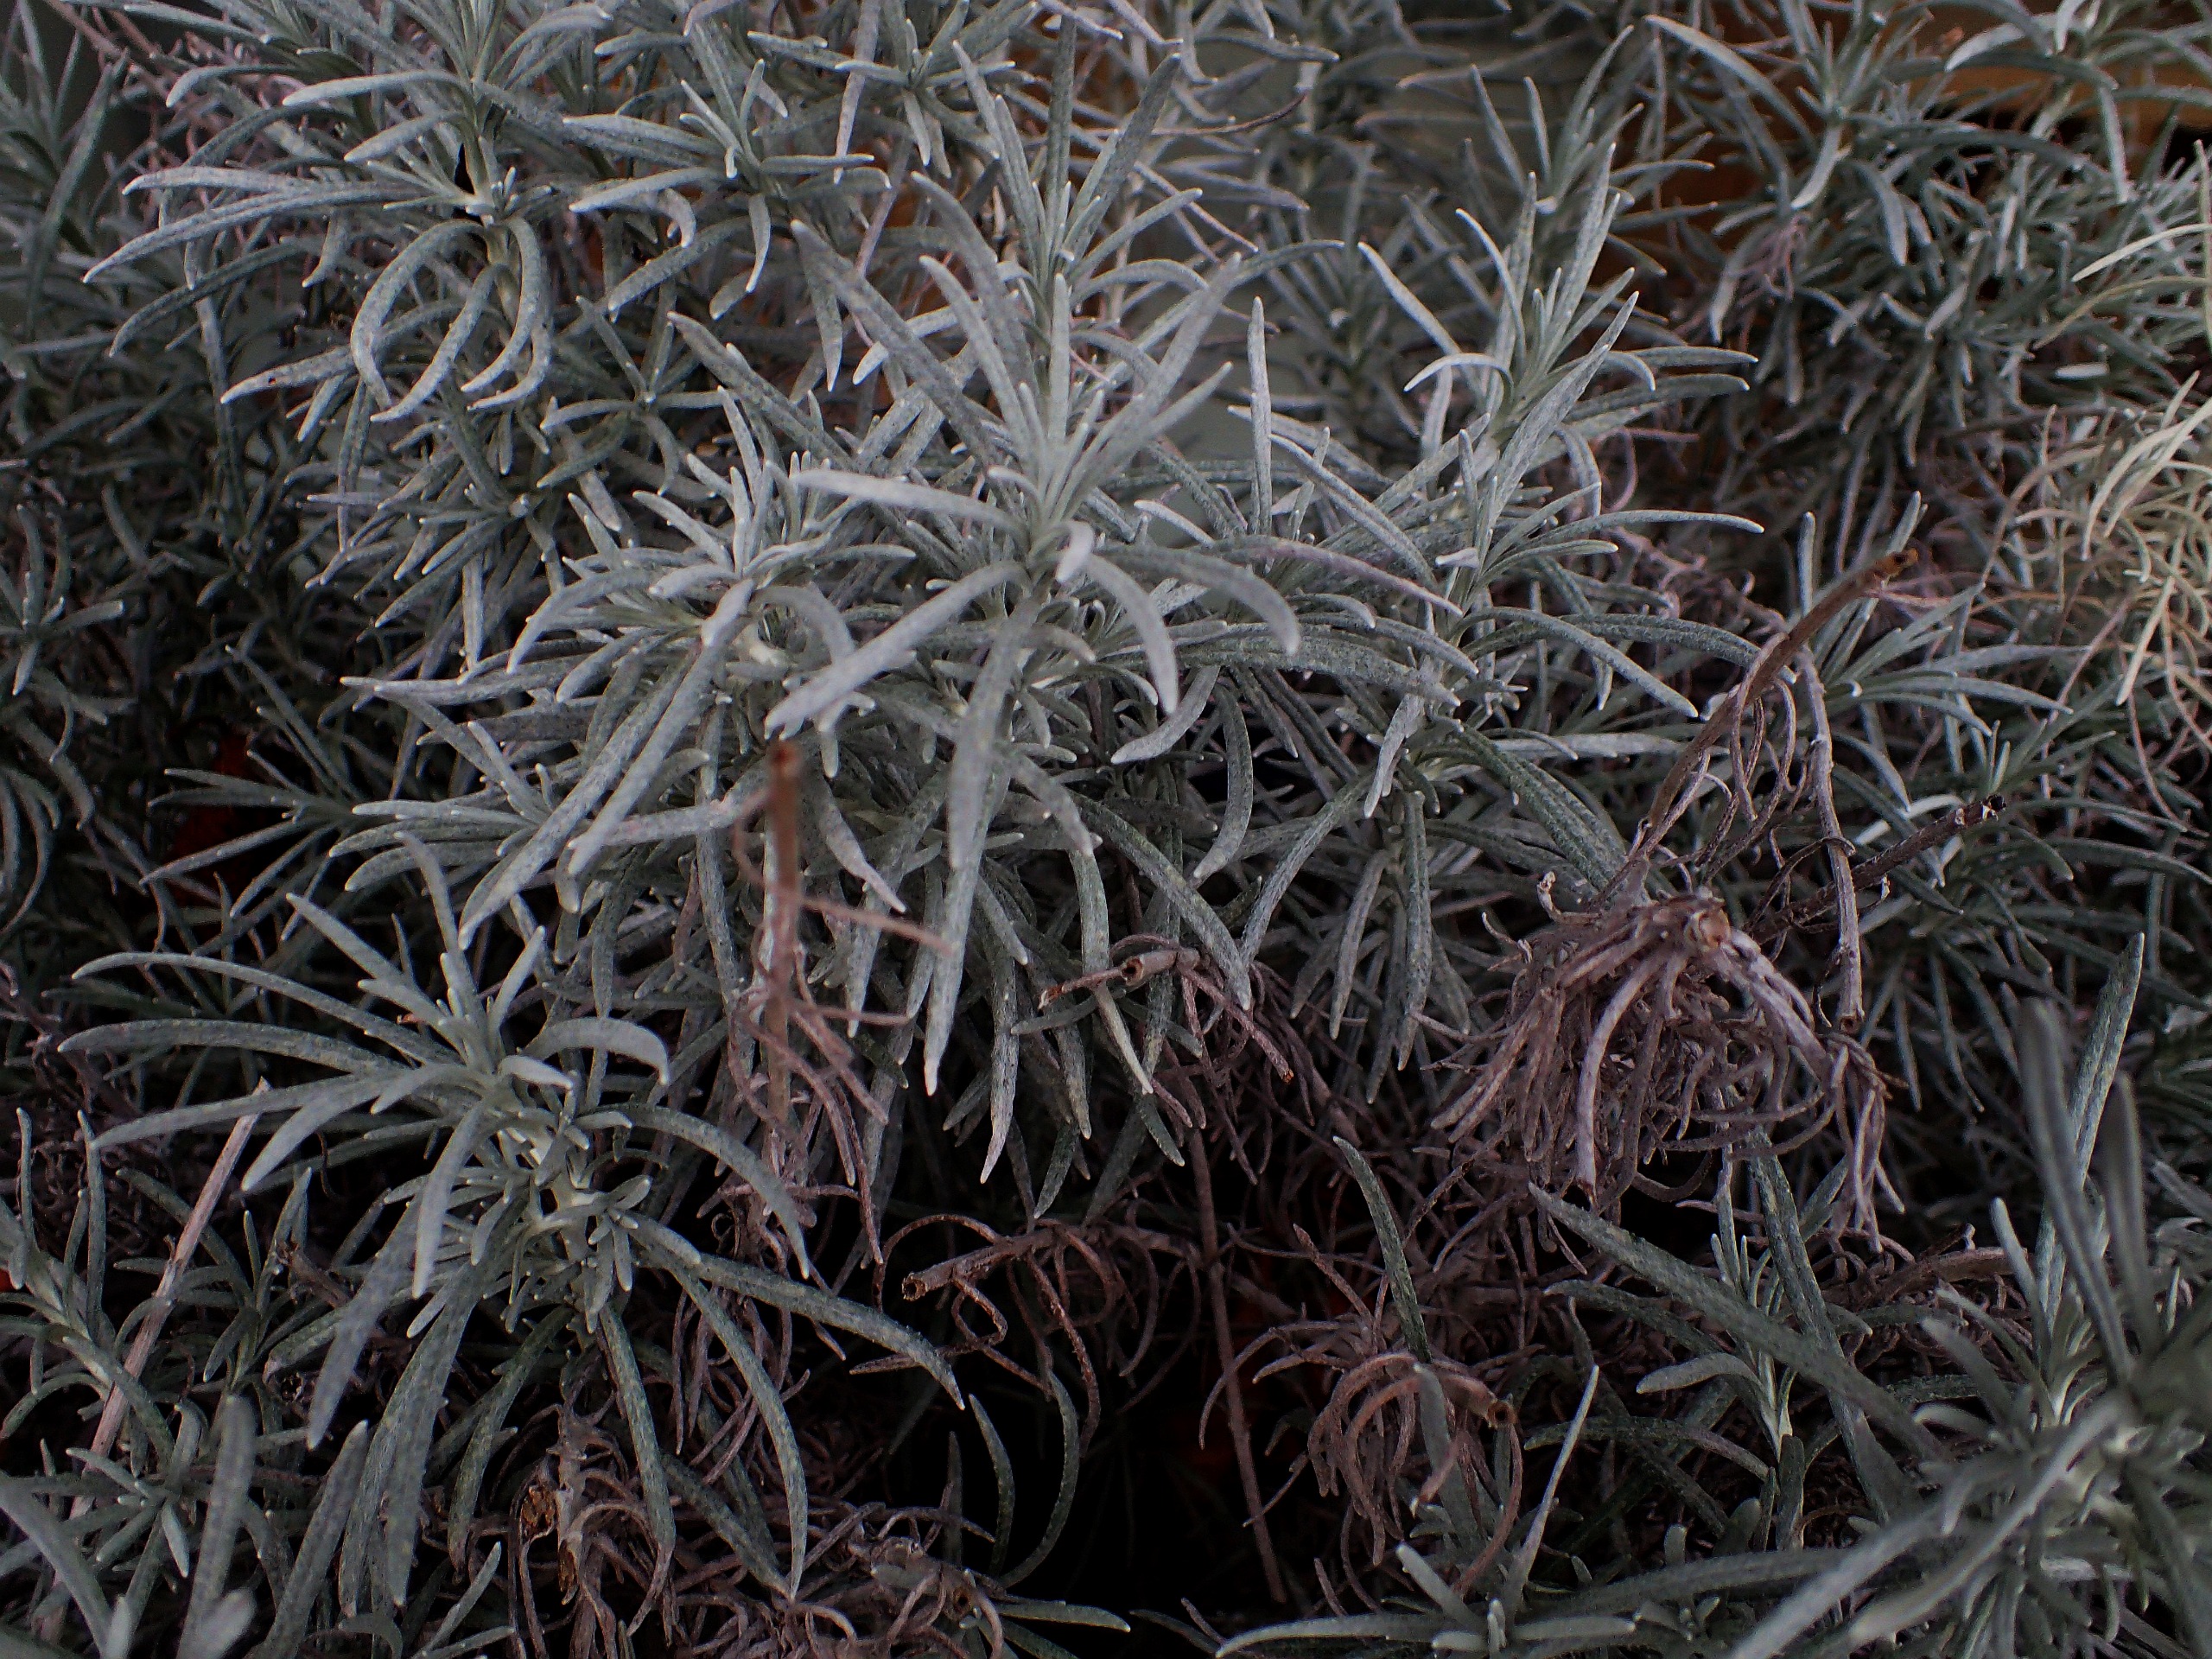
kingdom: Plantae
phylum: Tracheophyta
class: Magnoliopsida
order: Lamiales
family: Lamiaceae
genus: Lavandula
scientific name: Lavandula angustifolia
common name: Ægte lavendel
